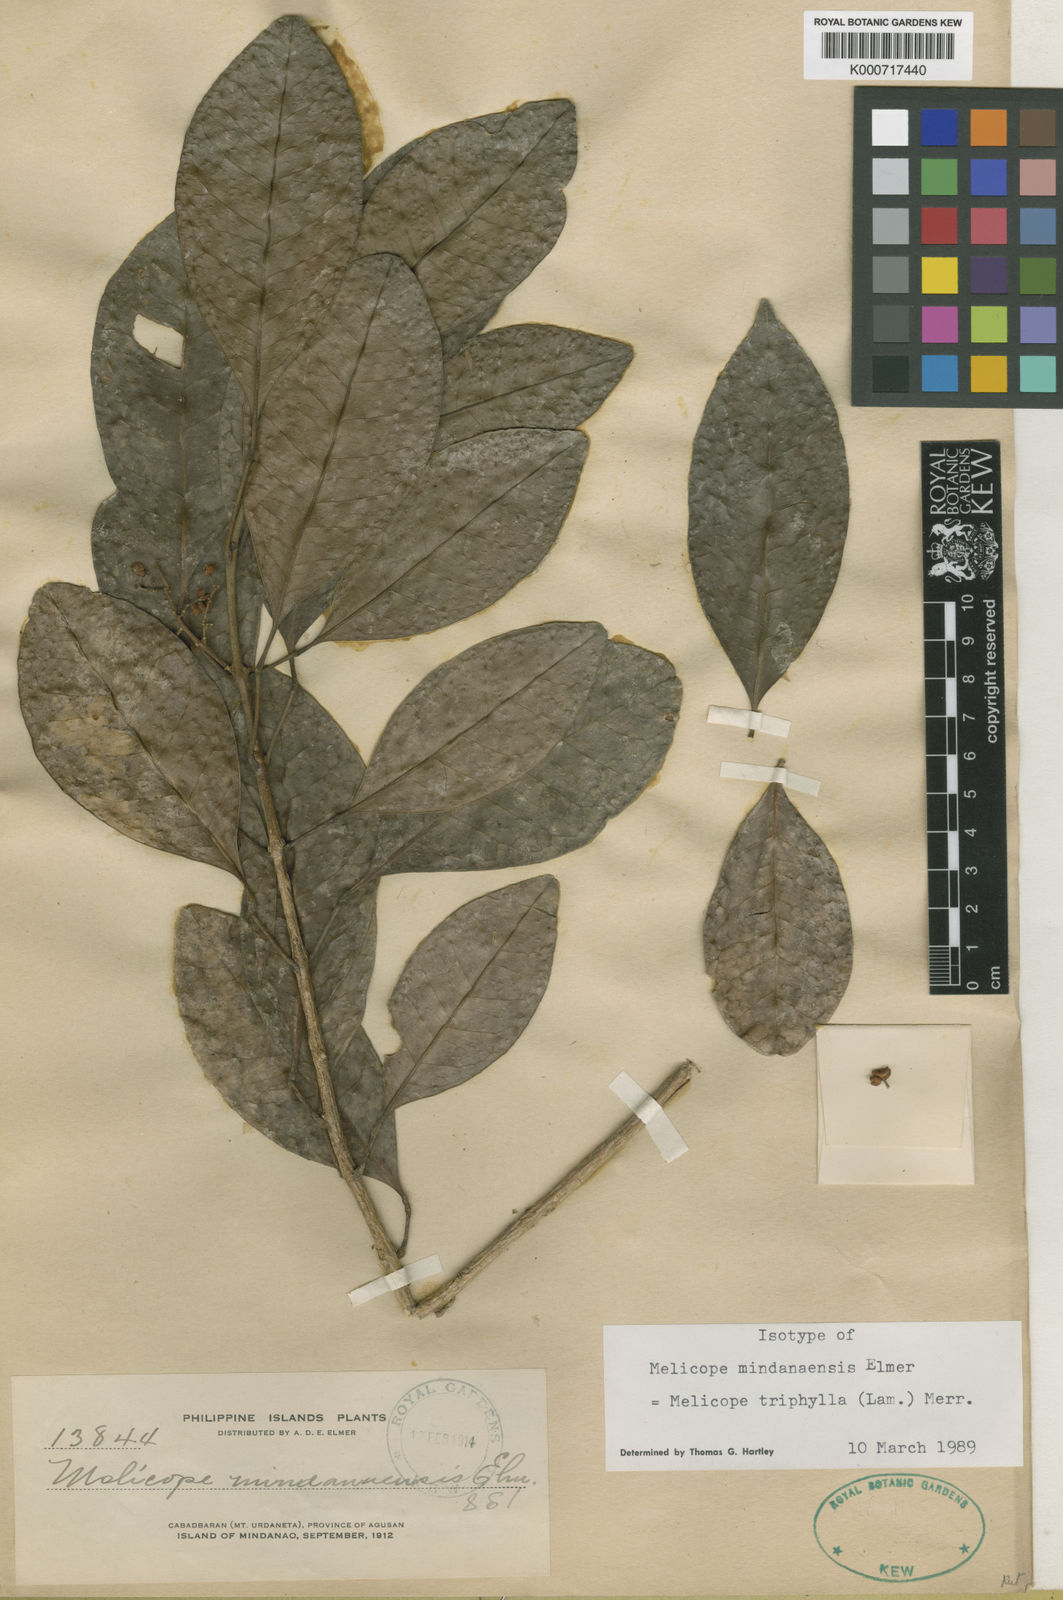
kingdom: Plantae
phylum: Tracheophyta
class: Magnoliopsida
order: Sapindales
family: Rutaceae
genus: Melicope
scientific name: Melicope triphylla
